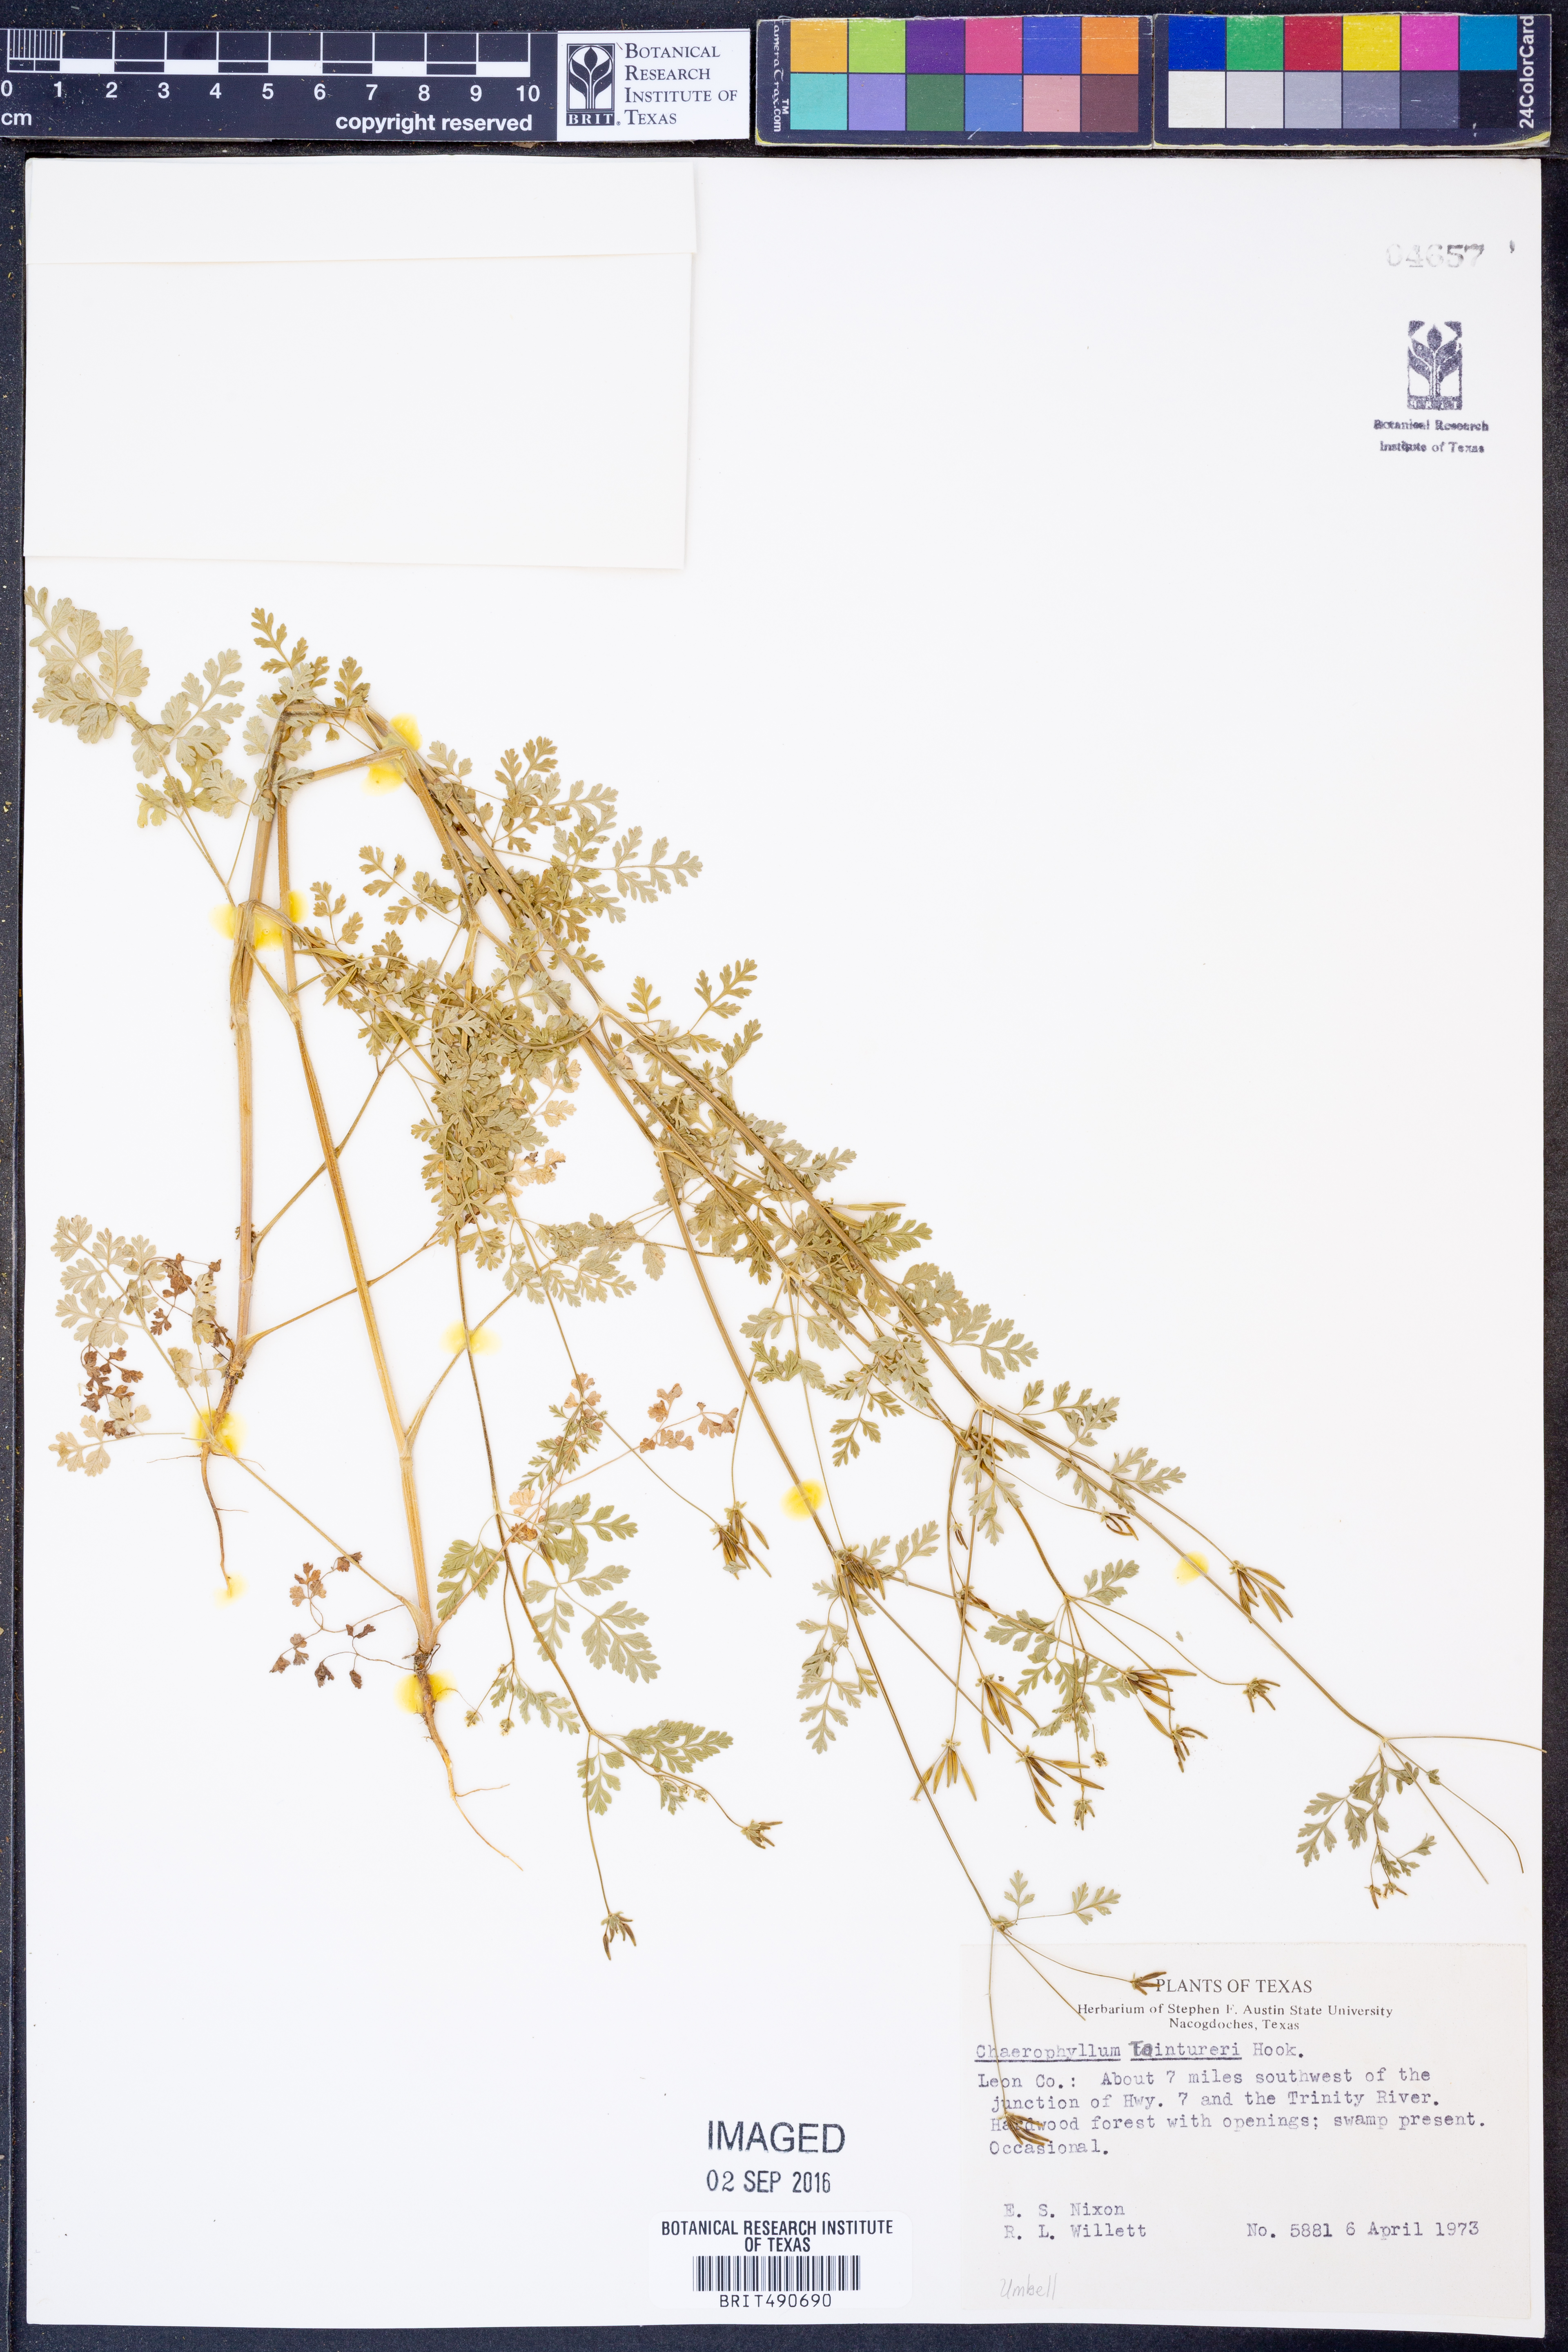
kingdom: Plantae
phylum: Tracheophyta
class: Magnoliopsida
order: Apiales
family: Apiaceae
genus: Chaerophyllum
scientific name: Chaerophyllum tainturieri
